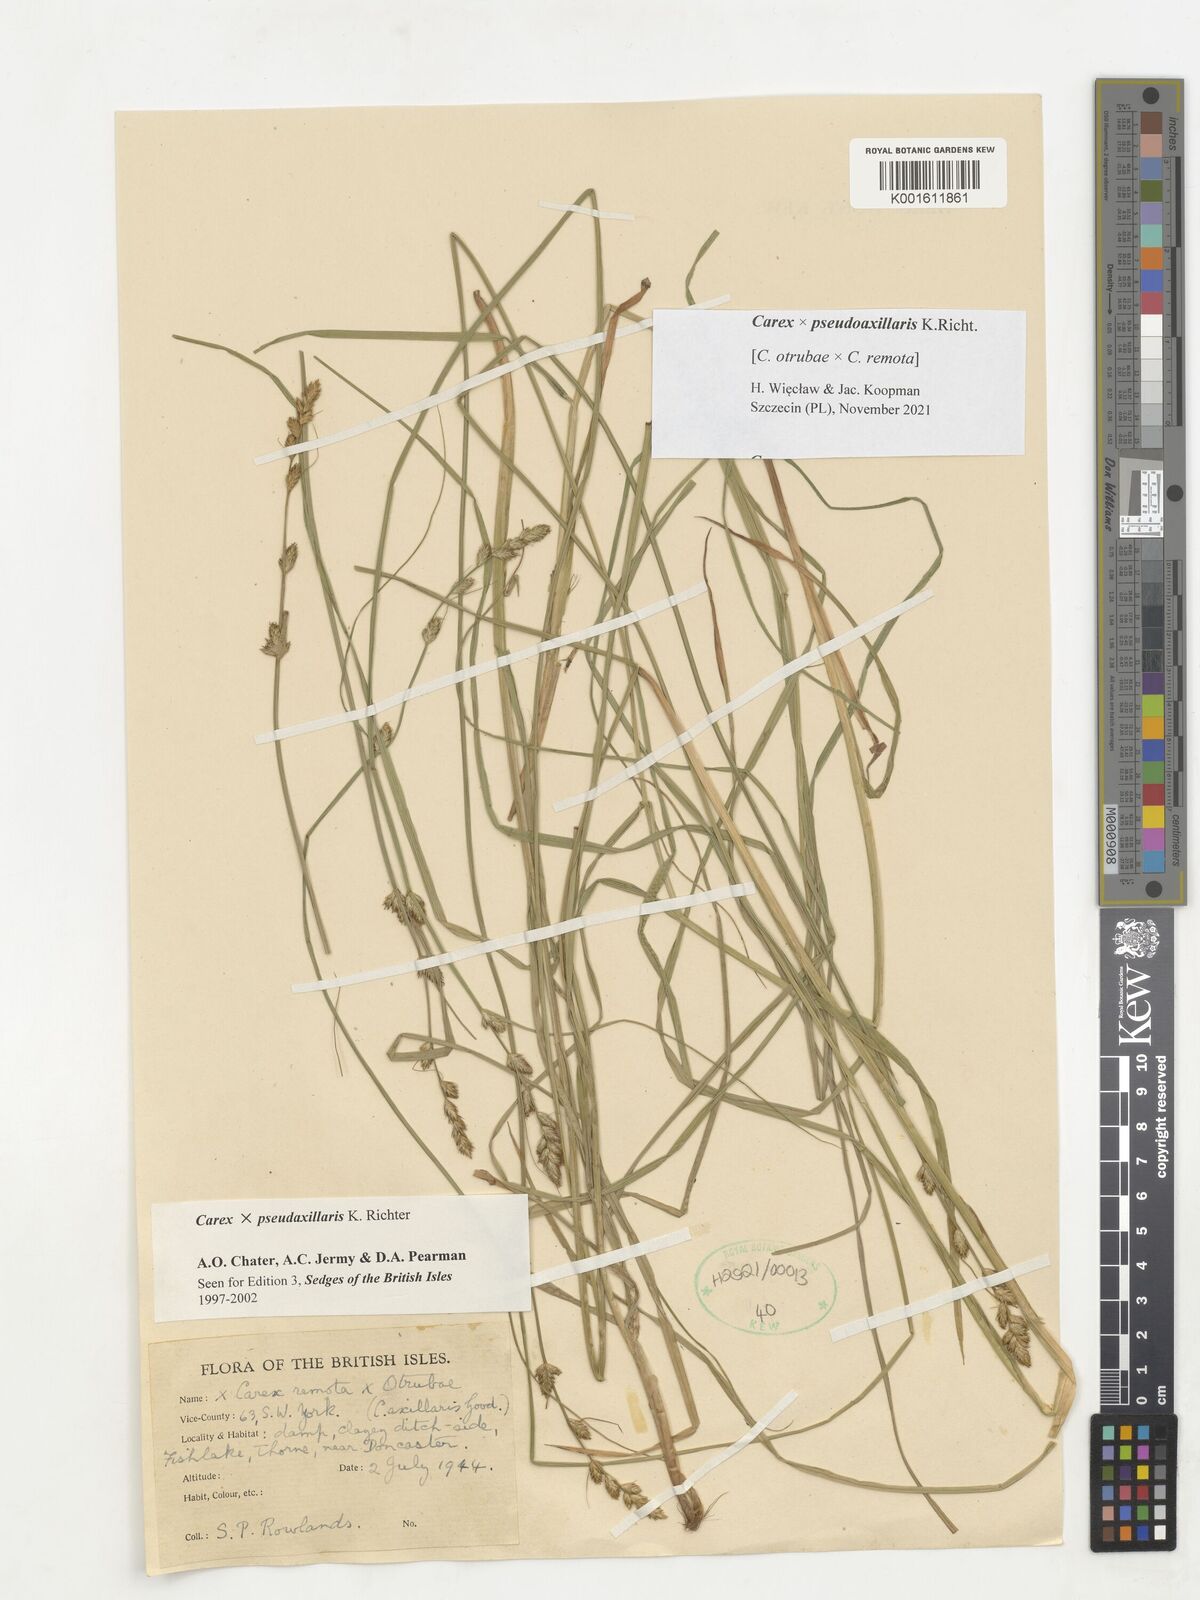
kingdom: Plantae
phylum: Tracheophyta
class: Liliopsida
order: Poales
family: Cyperaceae
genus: Carex
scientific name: Carex pseudoaxillaris
